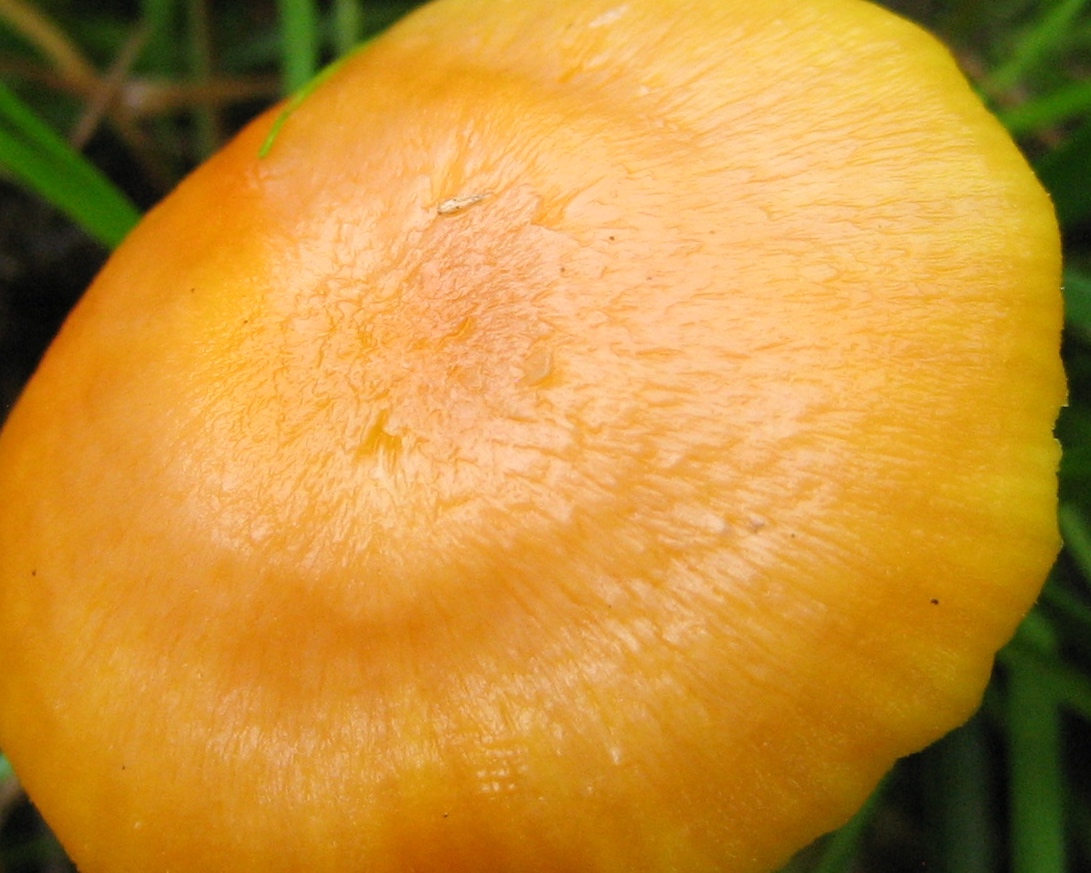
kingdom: Fungi
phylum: Basidiomycota
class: Agaricomycetes
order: Agaricales
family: Hygrophoraceae
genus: Hygrocybe
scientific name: Hygrocybe reidii
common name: honning-vokshat
